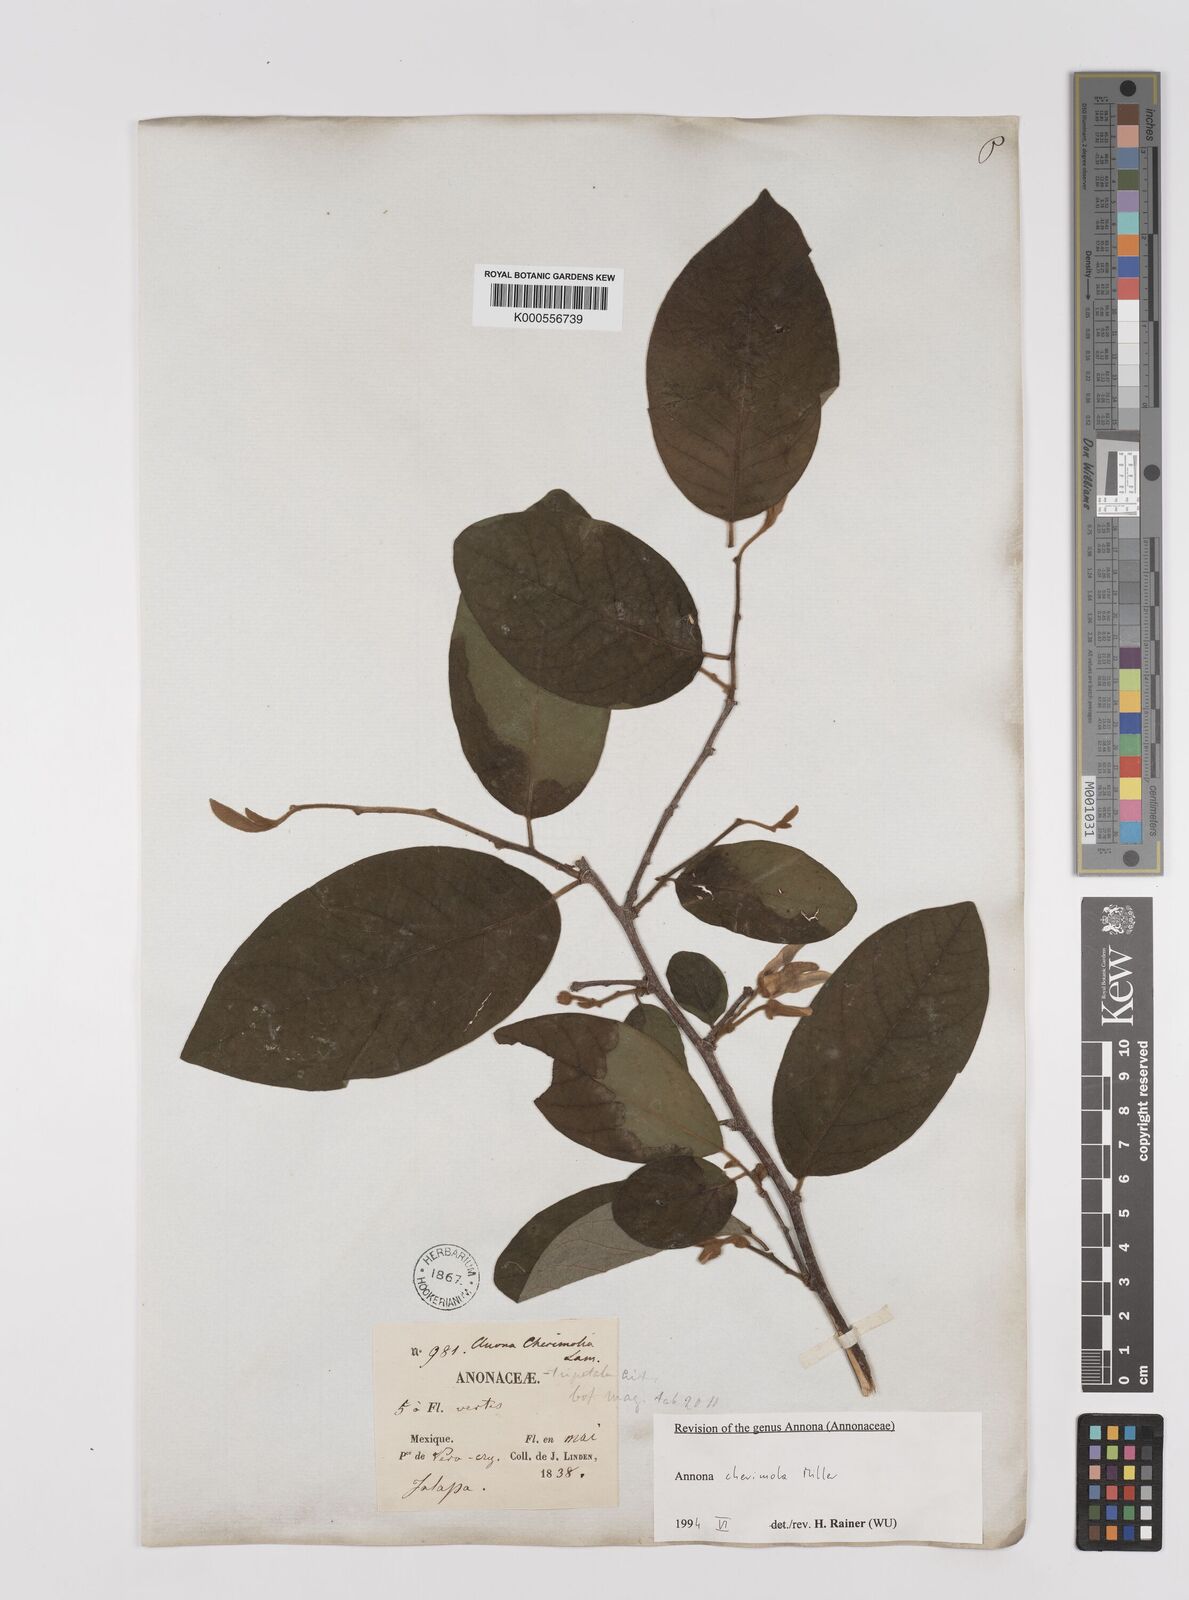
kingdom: Plantae
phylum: Tracheophyta
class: Magnoliopsida
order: Magnoliales
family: Annonaceae
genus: Annona
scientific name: Annona cherimola
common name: Cherimoya
